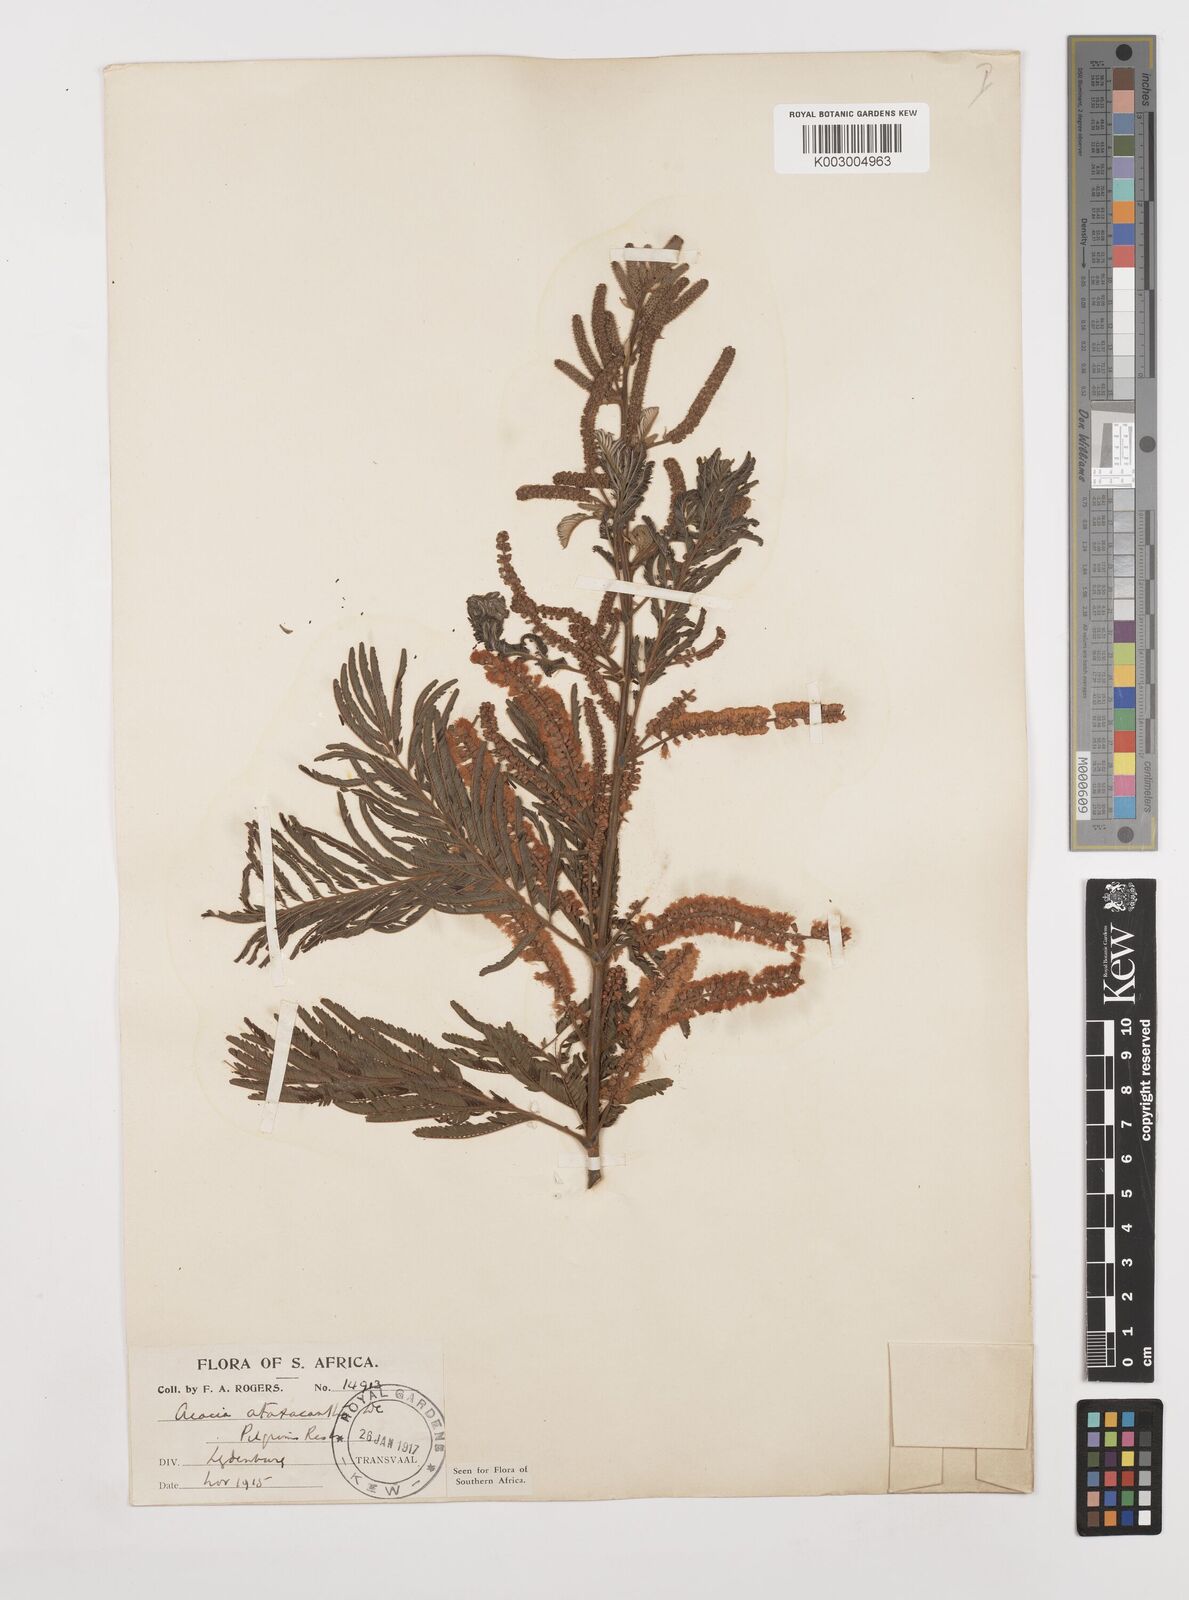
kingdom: Plantae
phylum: Tracheophyta
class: Magnoliopsida
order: Fabales
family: Fabaceae
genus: Senegalia
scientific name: Senegalia ataxacantha
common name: Flame acacia
